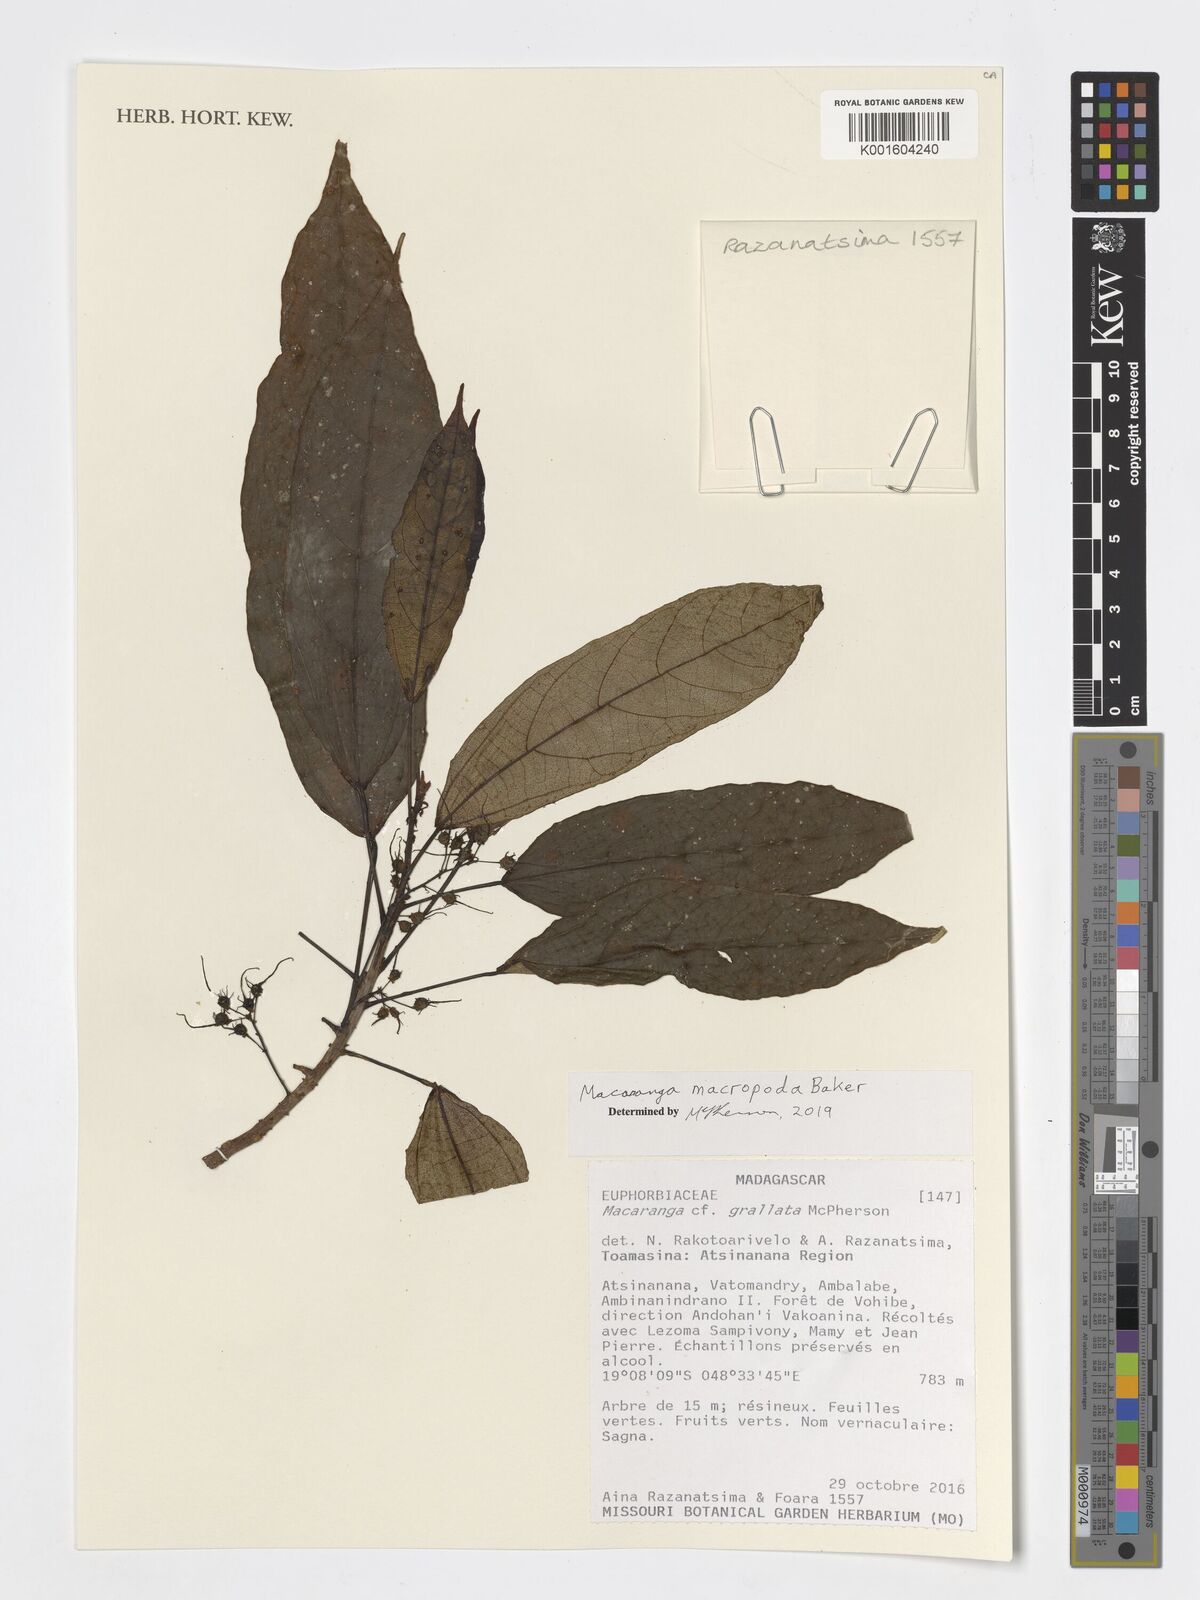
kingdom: Plantae
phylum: Tracheophyta
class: Magnoliopsida
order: Malpighiales
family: Euphorbiaceae
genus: Macaranga
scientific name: Macaranga macropoda
